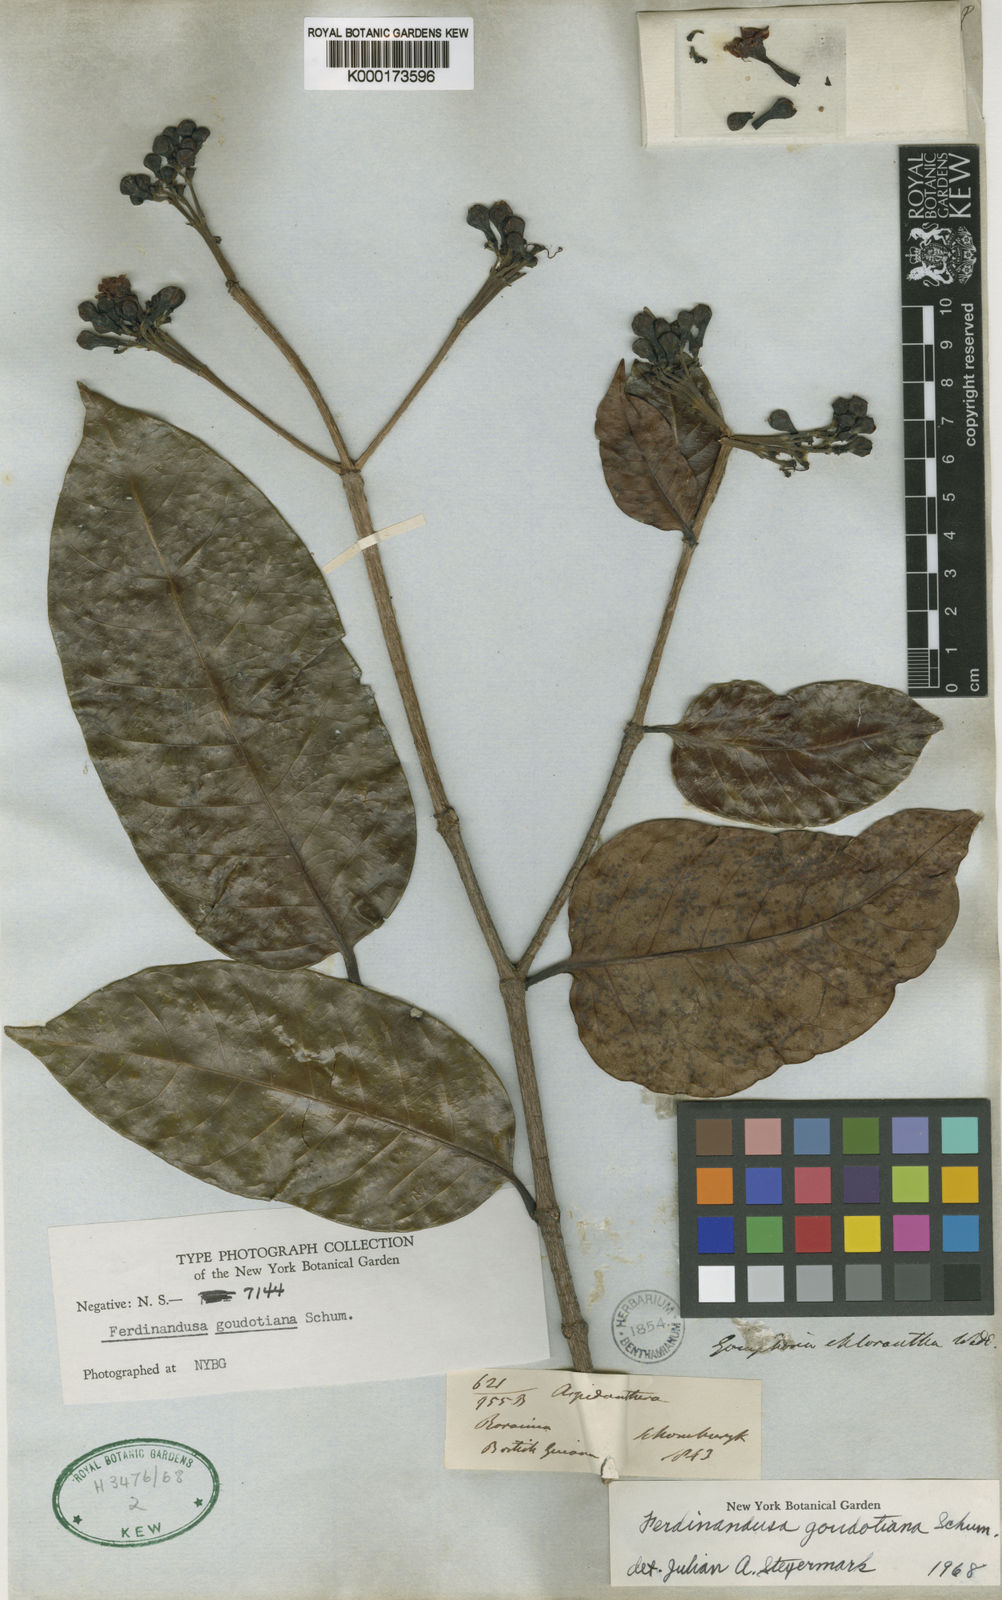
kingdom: Plantae
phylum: Tracheophyta
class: Magnoliopsida
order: Gentianales
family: Rubiaceae
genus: Ferdinandusa
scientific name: Ferdinandusa goudotiana
